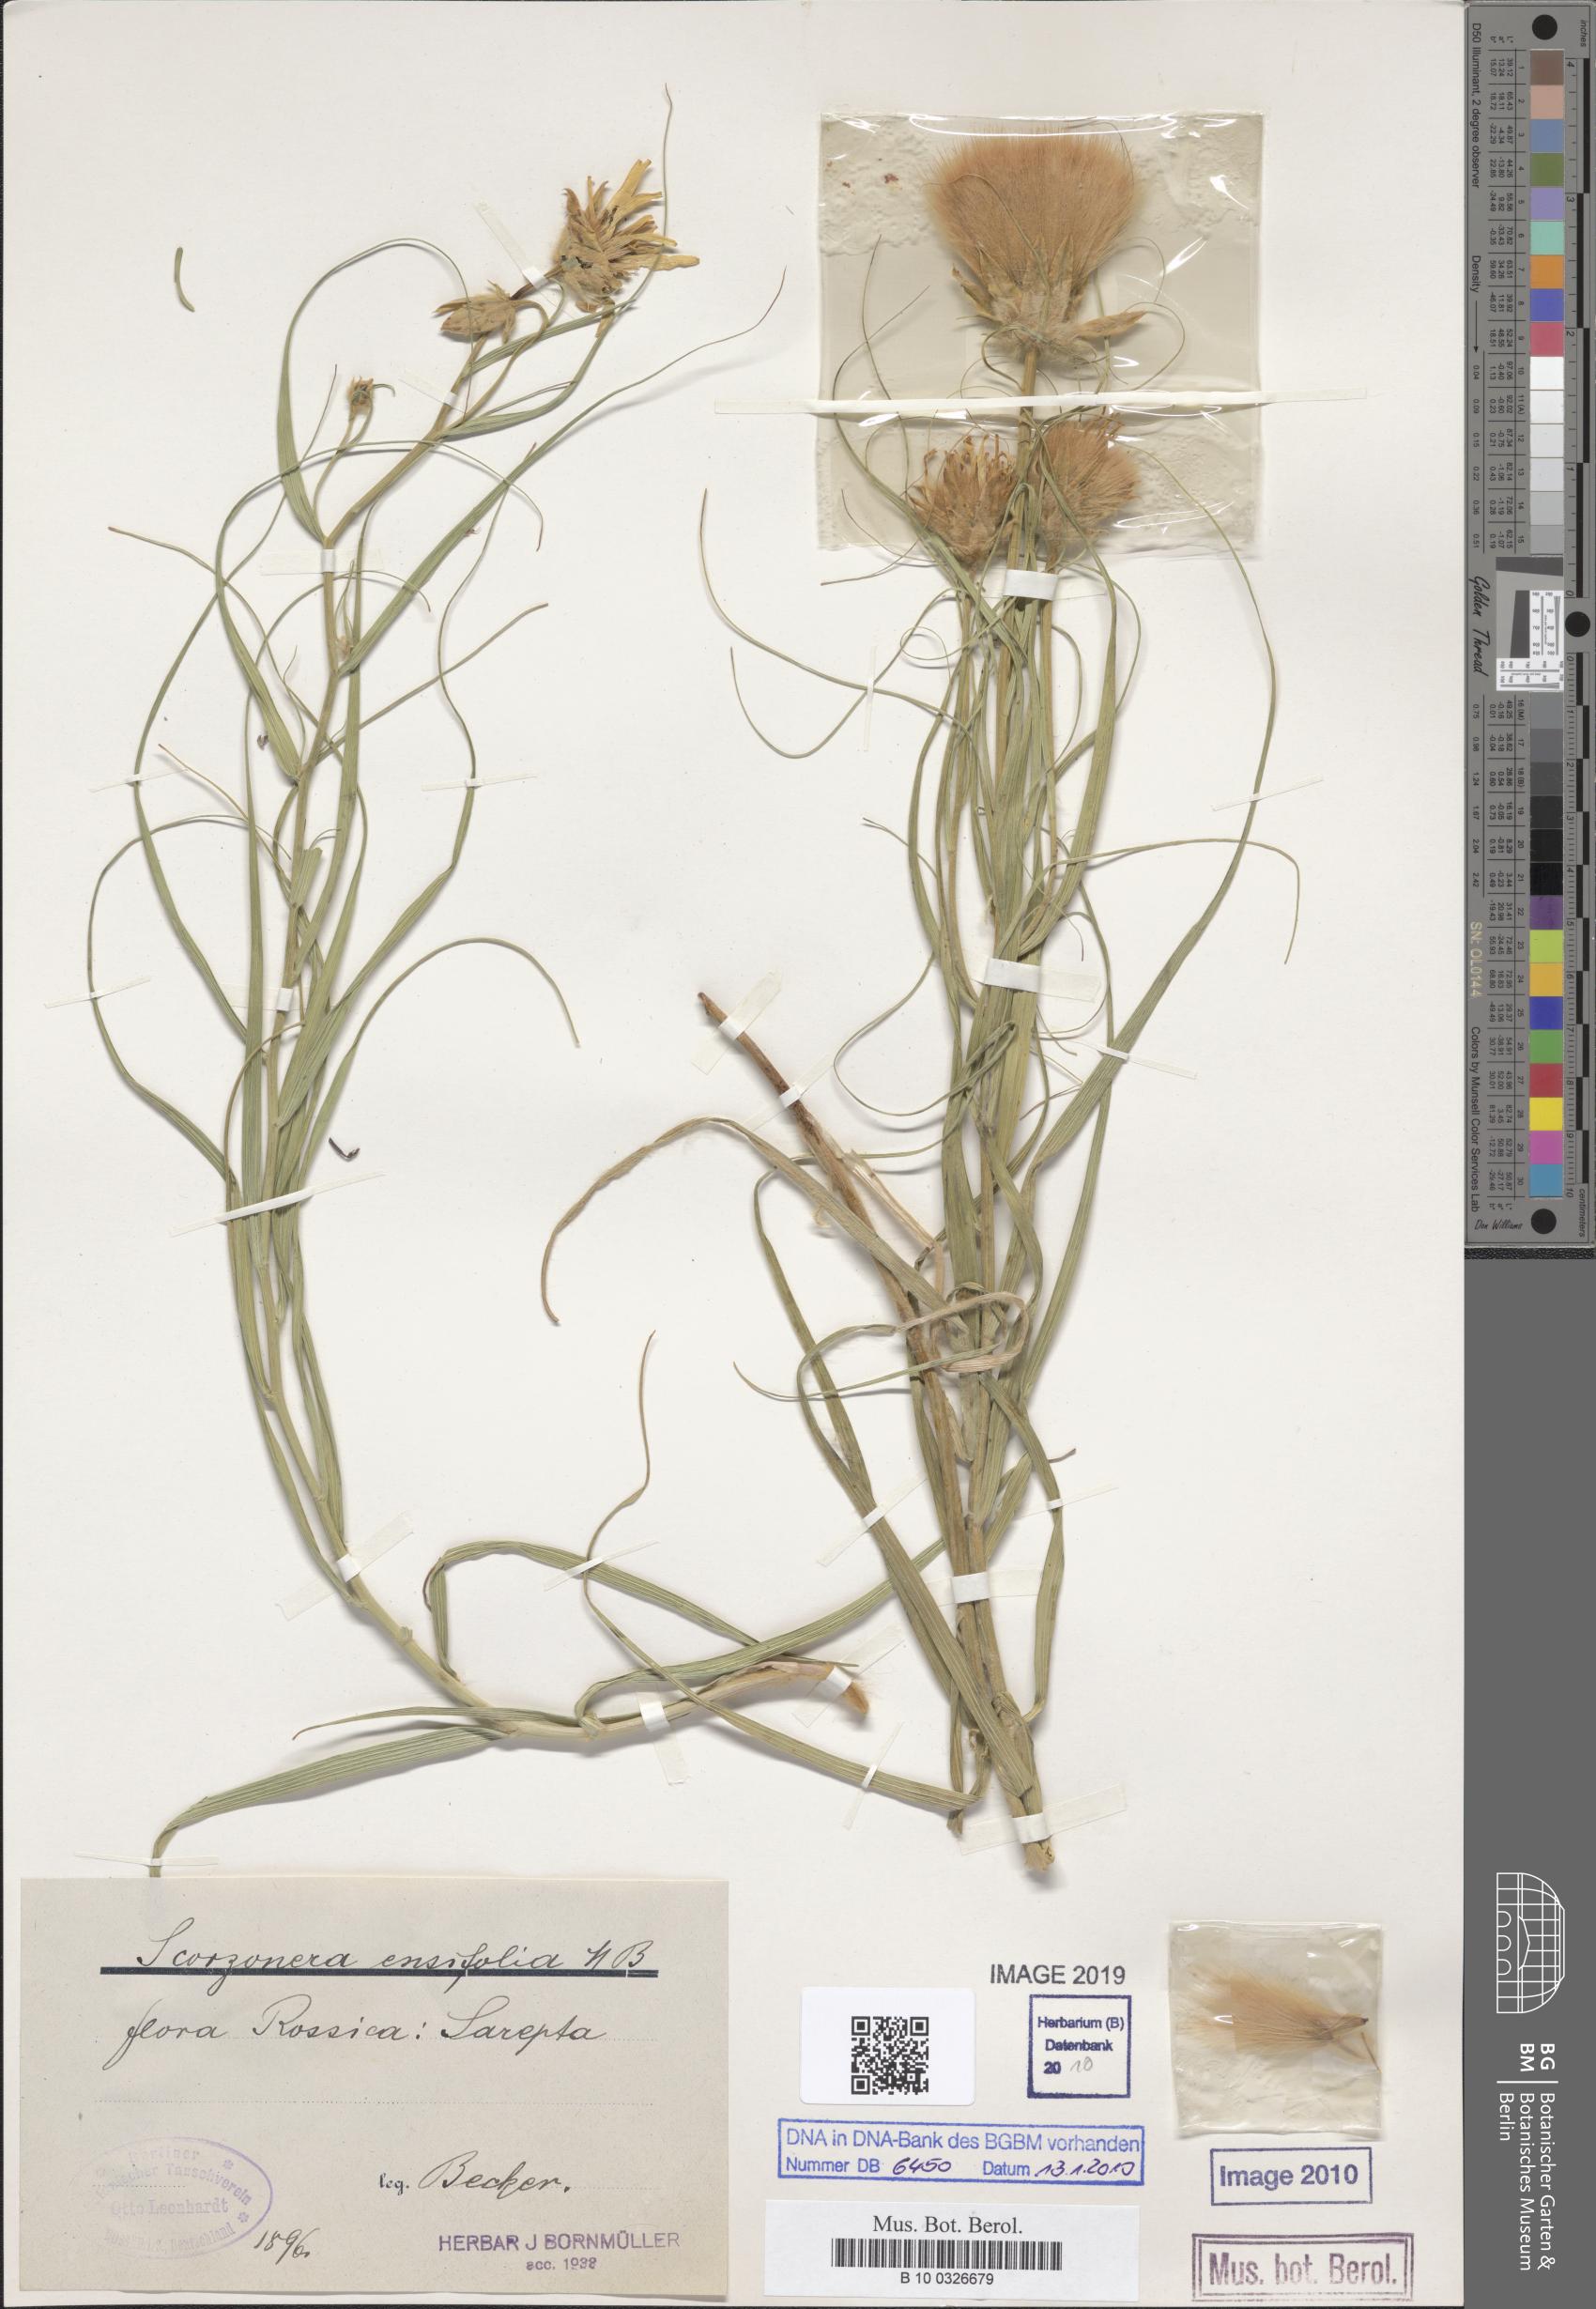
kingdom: Plantae
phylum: Tracheophyta
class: Magnoliopsida
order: Asterales
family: Asteraceae
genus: Gelasia
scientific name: Gelasia ensifolia
